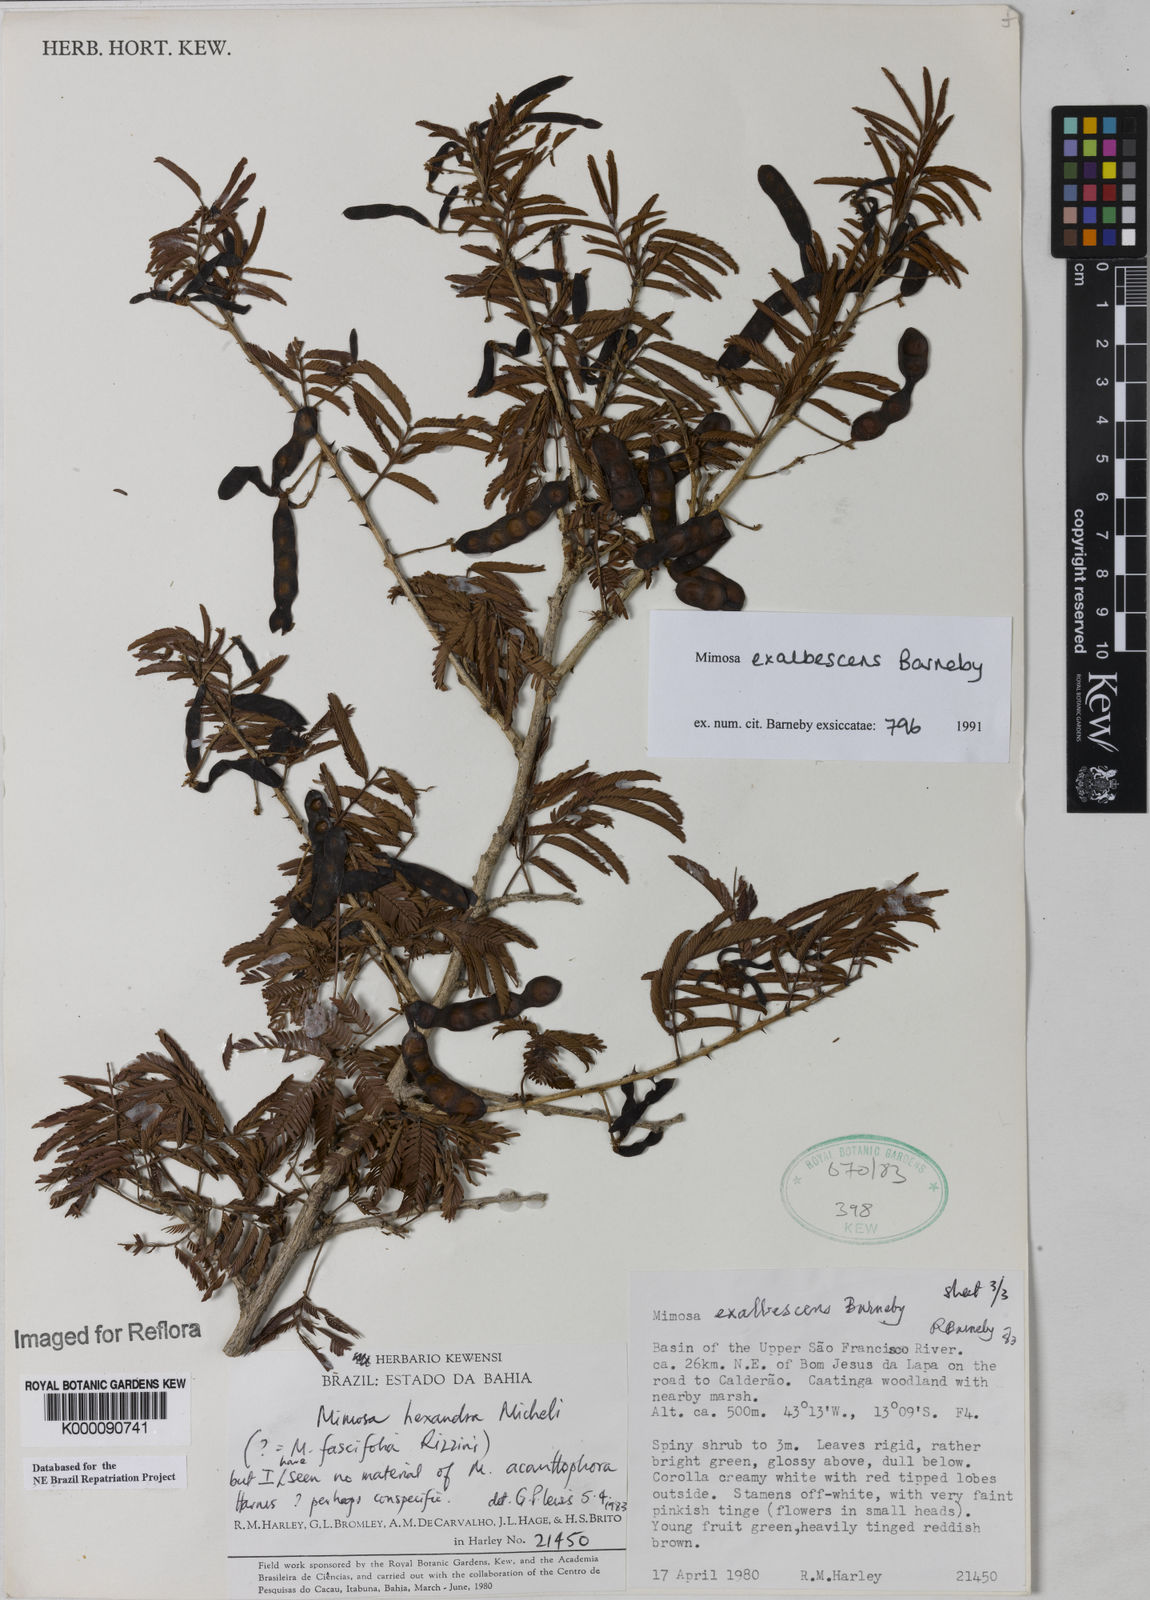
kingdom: Plantae
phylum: Tracheophyta
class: Magnoliopsida
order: Fabales
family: Fabaceae
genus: Mimosa
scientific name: Mimosa exalbescens
